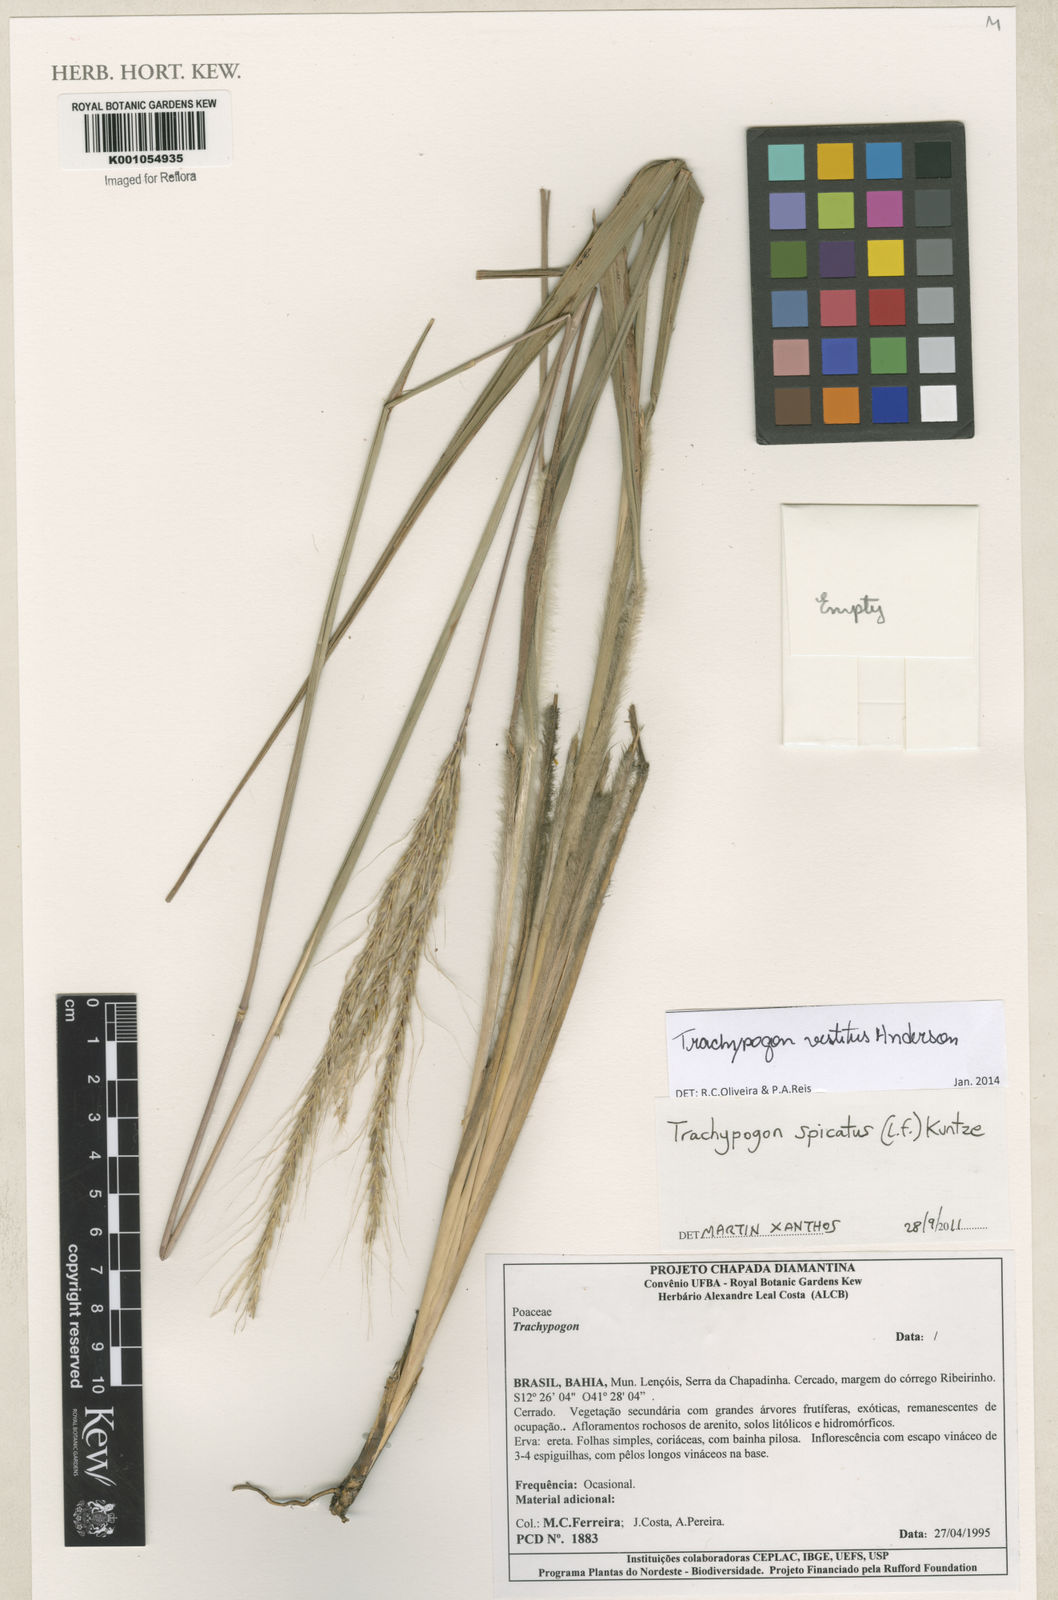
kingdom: Plantae
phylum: Tracheophyta
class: Liliopsida
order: Poales
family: Poaceae
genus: Trachypogon
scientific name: Trachypogon vestitus
